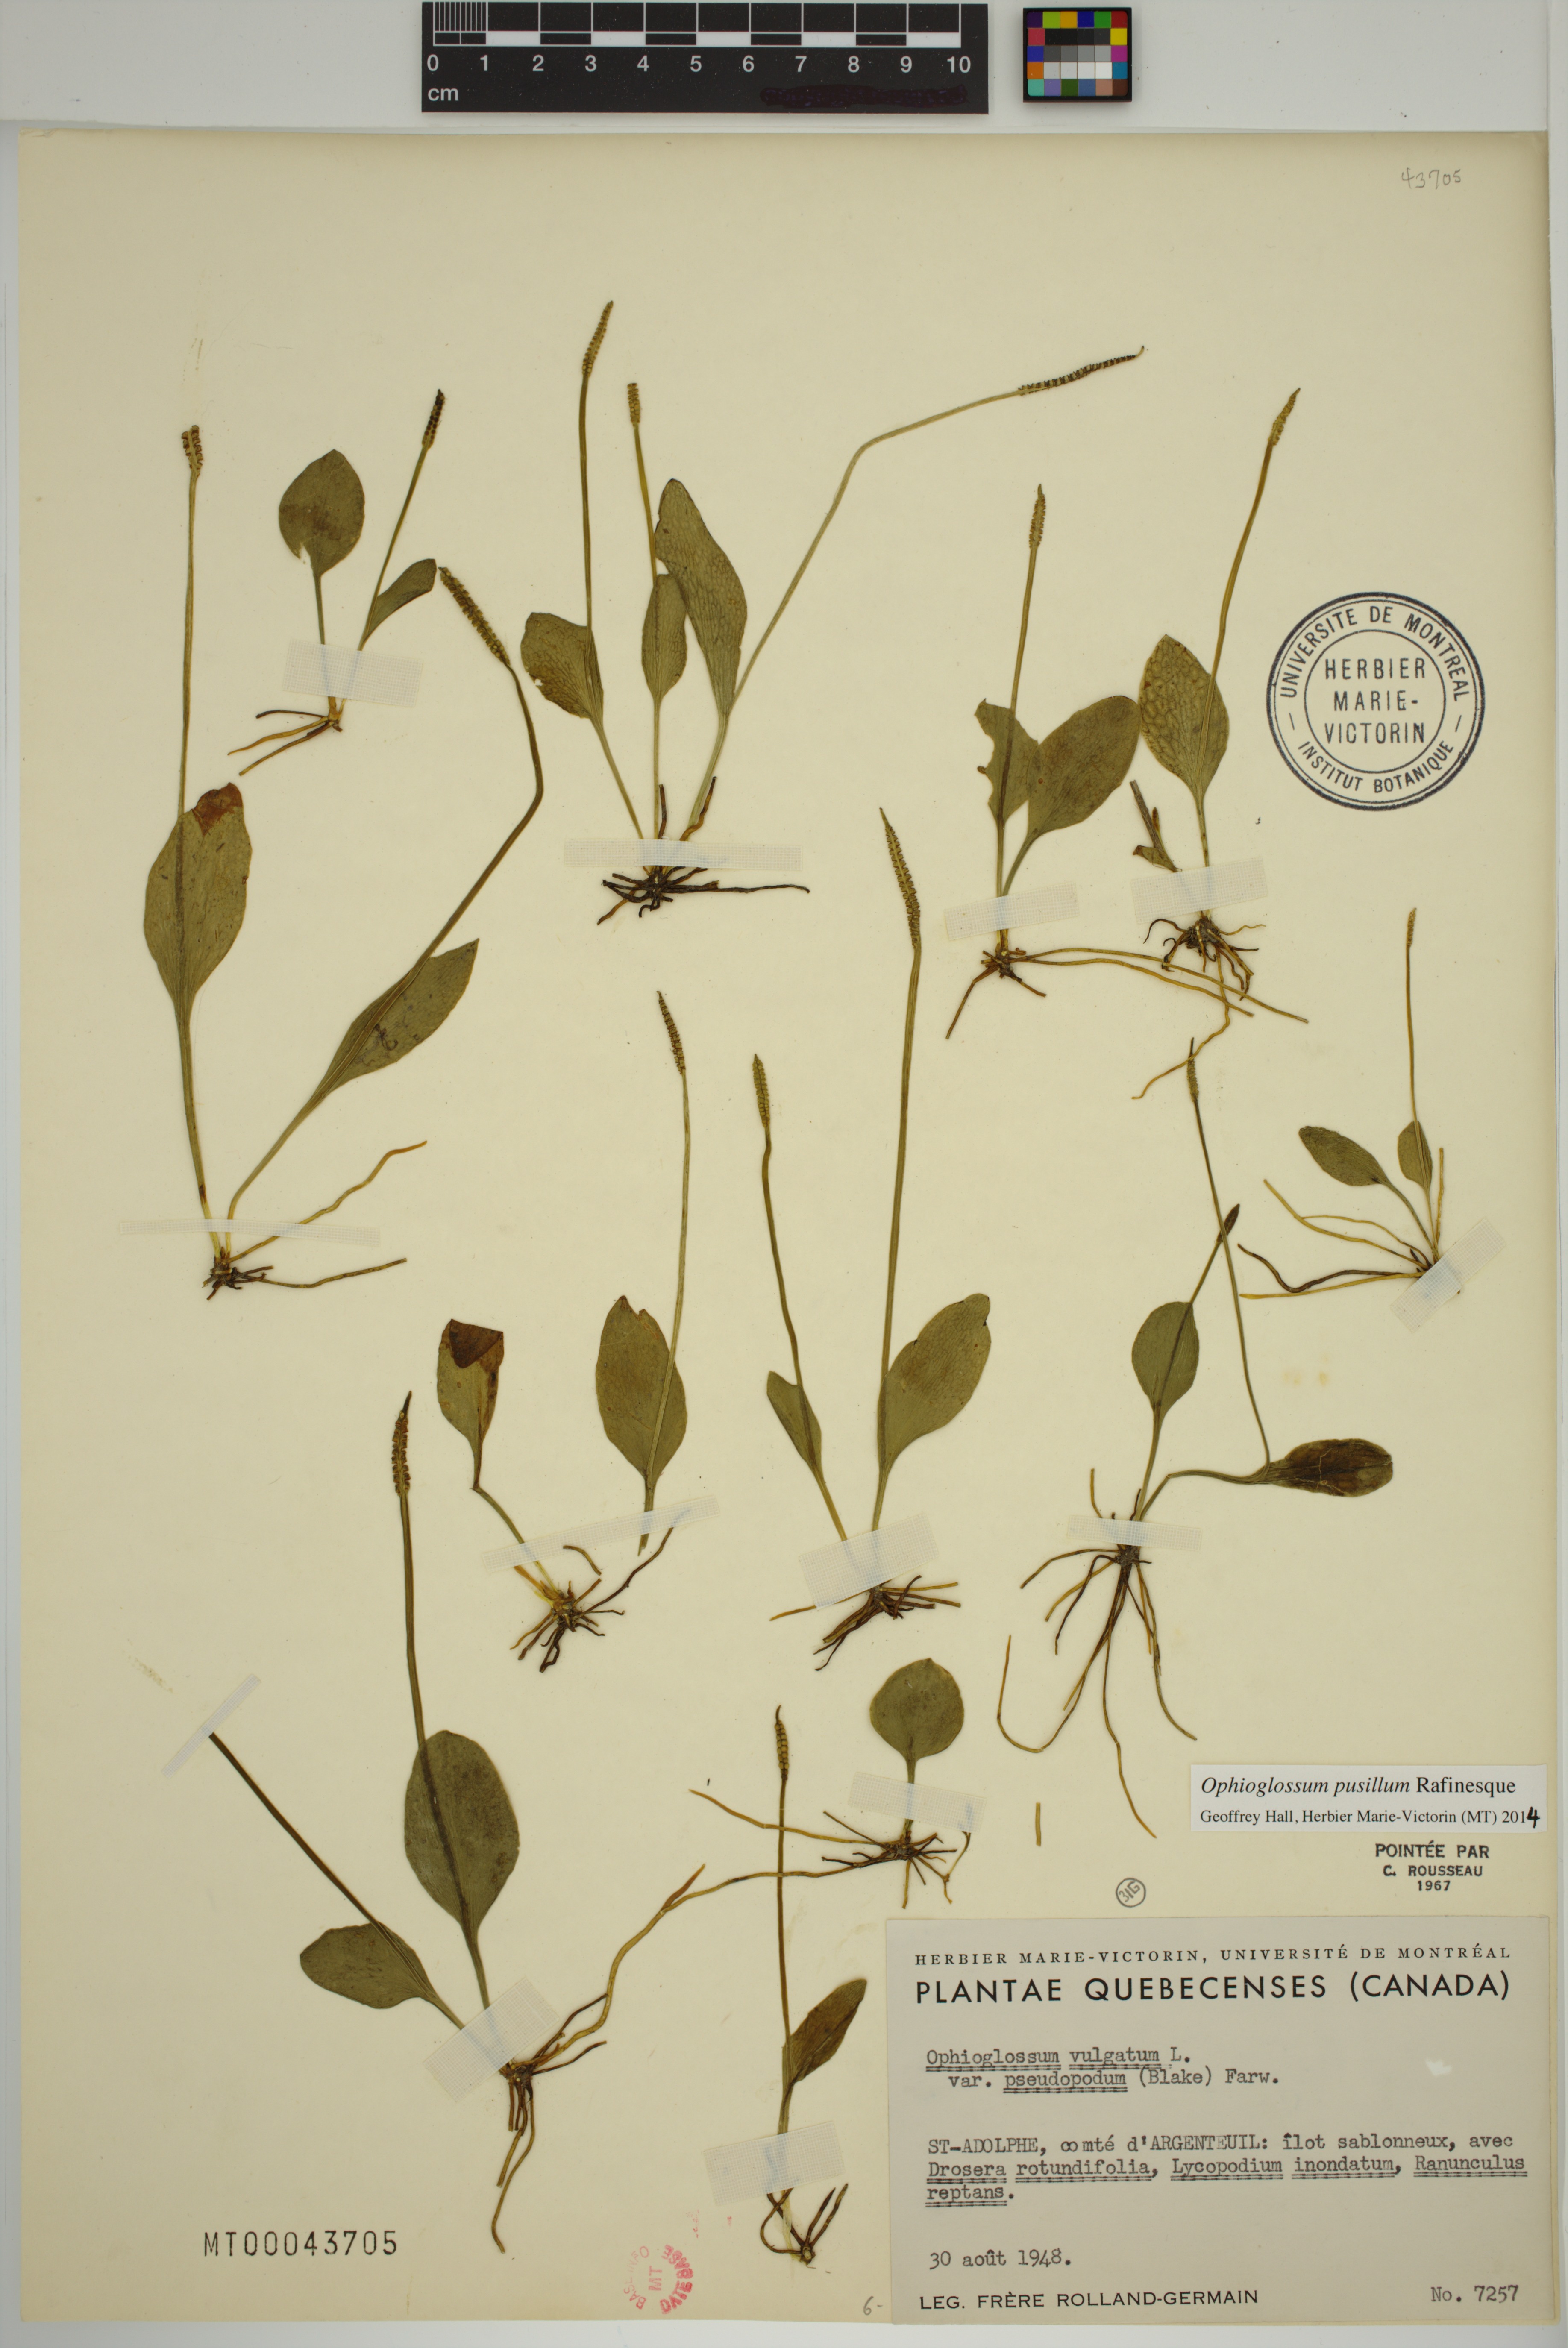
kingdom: Plantae
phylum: Tracheophyta
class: Polypodiopsida
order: Ophioglossales
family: Ophioglossaceae
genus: Ophioglossum
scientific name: Ophioglossum pusillum
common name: Northern adder's-tongue
